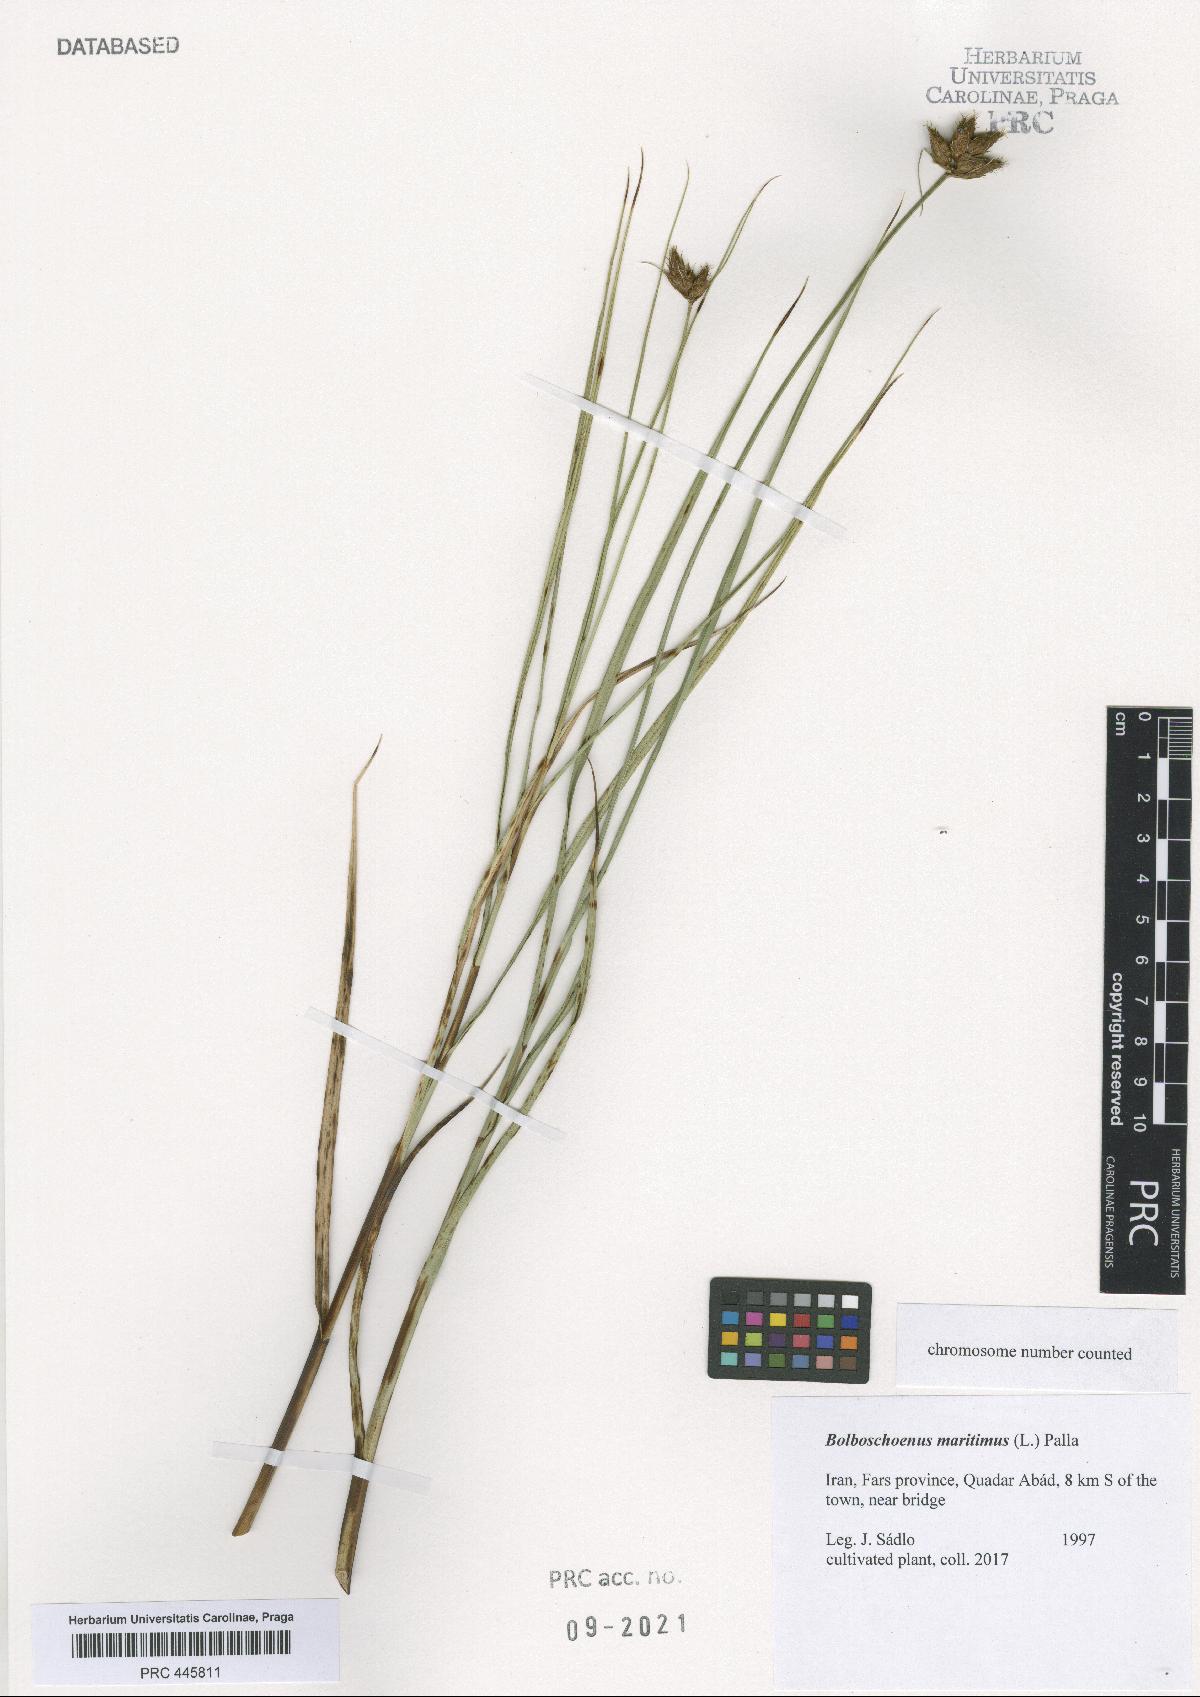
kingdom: Plantae
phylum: Tracheophyta
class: Liliopsida
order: Poales
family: Cyperaceae
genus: Bolboschoenus
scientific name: Bolboschoenus maritimus
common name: Sea club-rush
